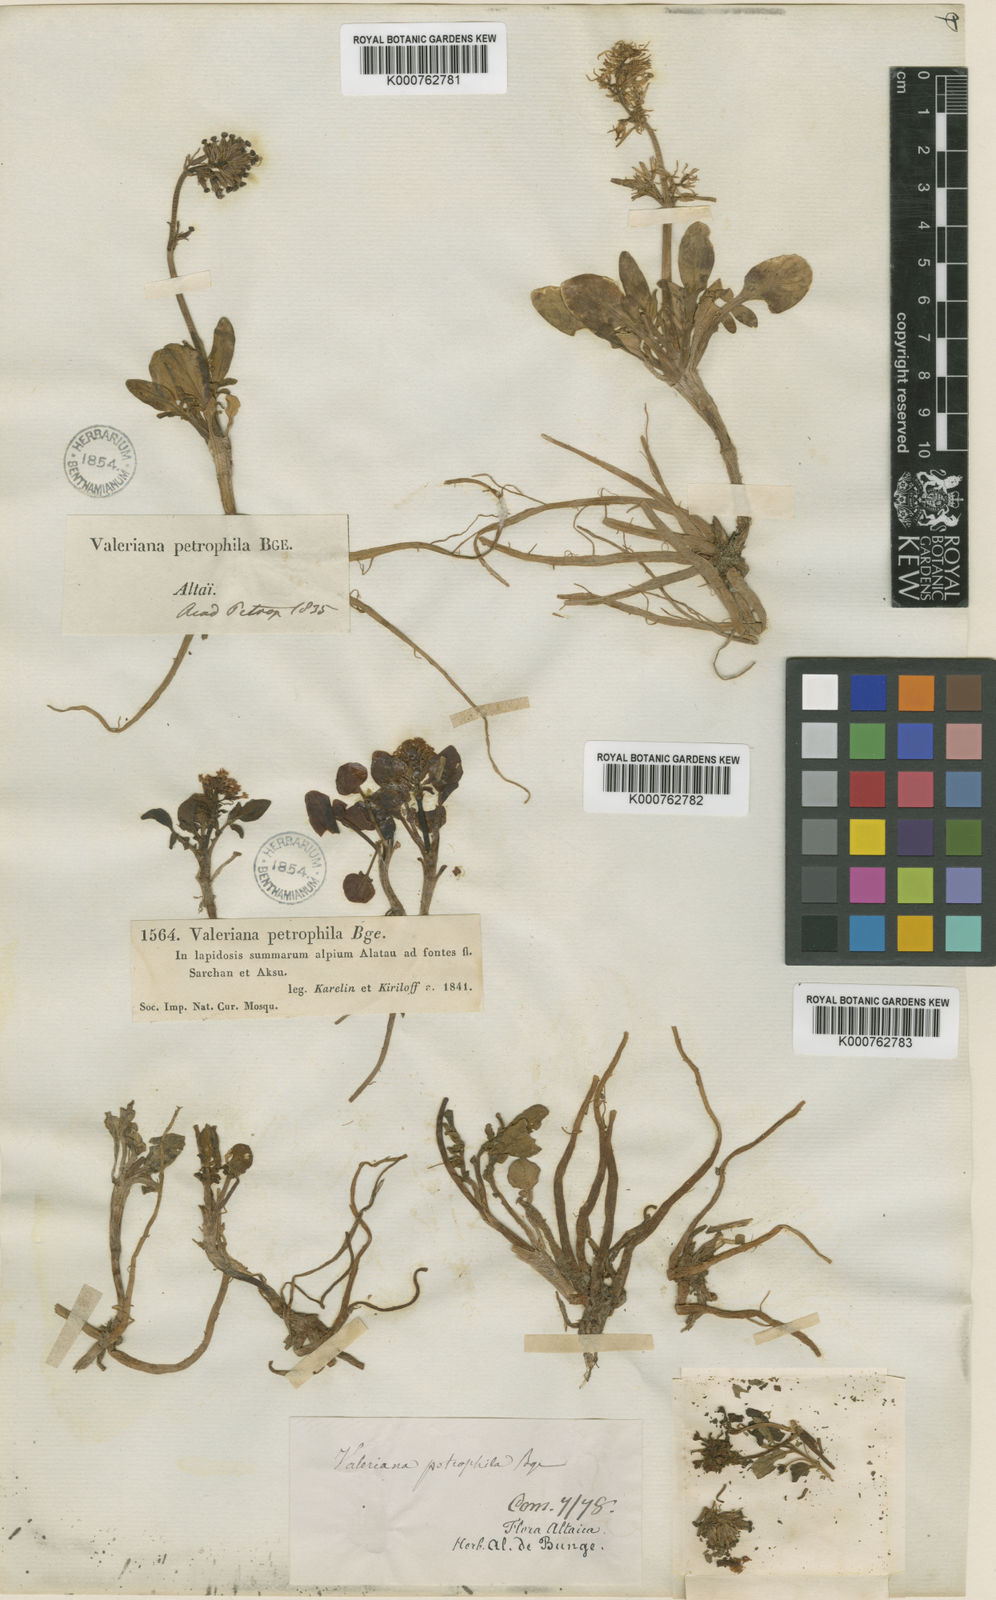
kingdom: Plantae
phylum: Tracheophyta
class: Magnoliopsida
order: Dipsacales
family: Caprifoliaceae
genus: Valeriana
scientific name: Valeriana petrophila
